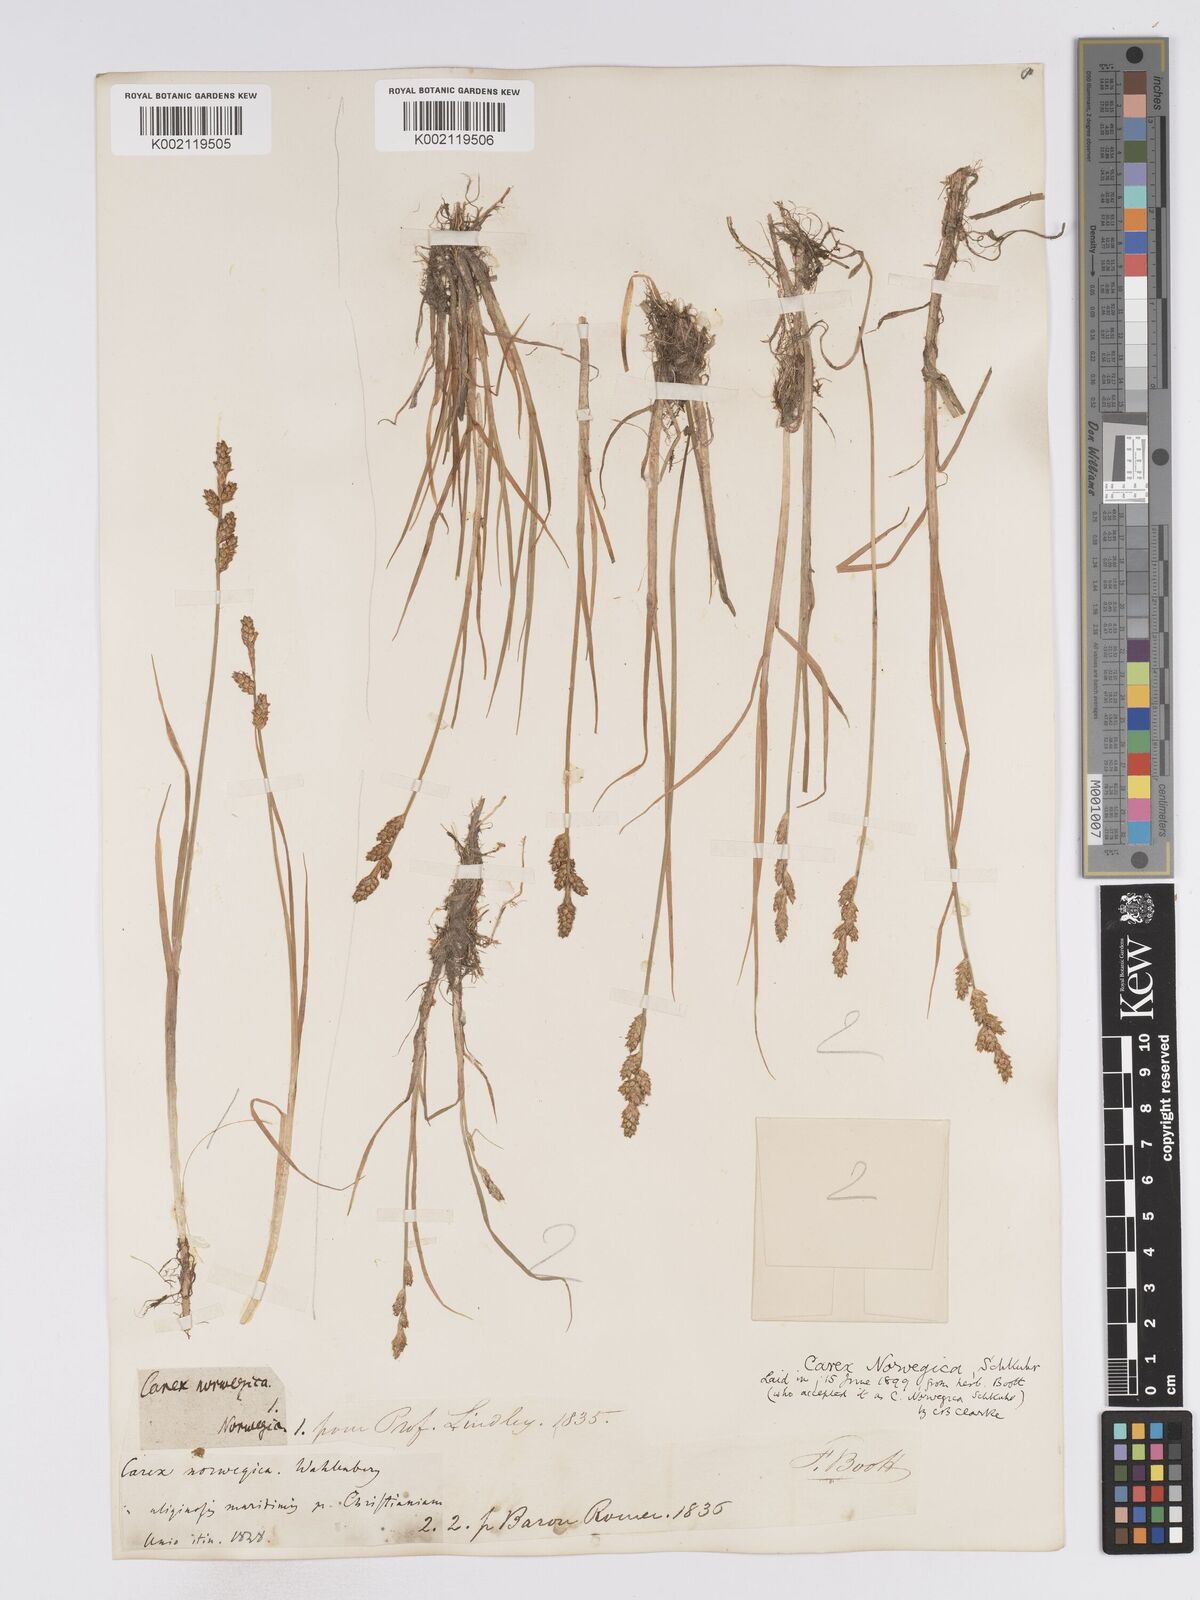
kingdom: Plantae
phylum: Tracheophyta
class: Liliopsida
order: Poales
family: Cyperaceae
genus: Carex
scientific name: Carex mackenziei
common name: Mackenzie's sedge
